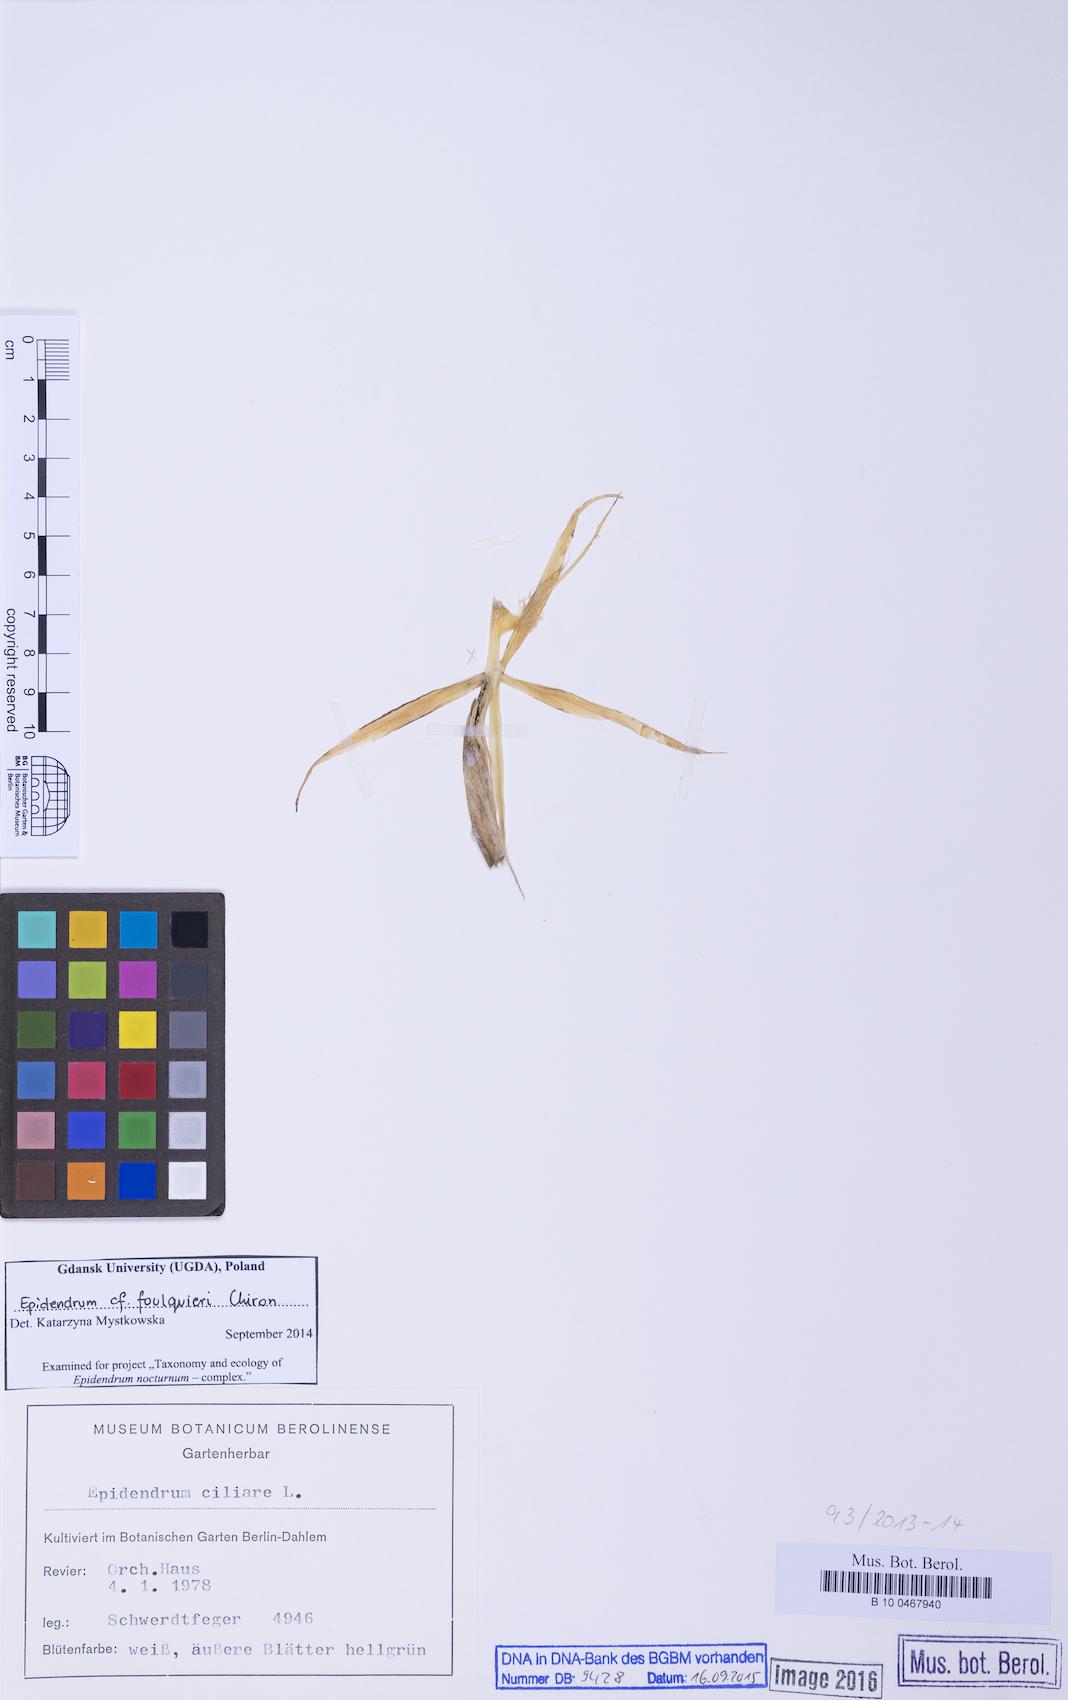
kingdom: Plantae
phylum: Tracheophyta
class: Liliopsida
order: Asparagales
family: Orchidaceae
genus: Epidendrum
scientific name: Epidendrum foulquieri
